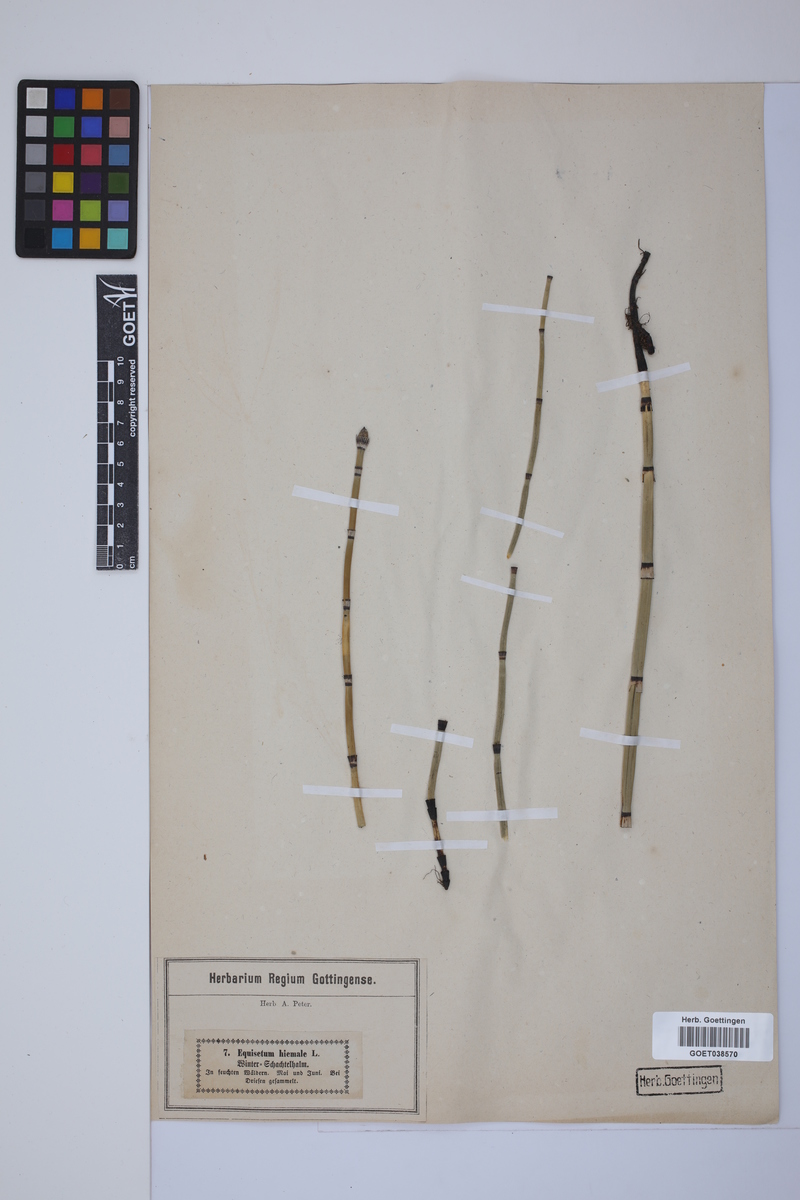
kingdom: Plantae
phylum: Tracheophyta
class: Polypodiopsida
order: Equisetales
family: Equisetaceae
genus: Equisetum
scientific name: Equisetum hyemale
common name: Rough horsetail
